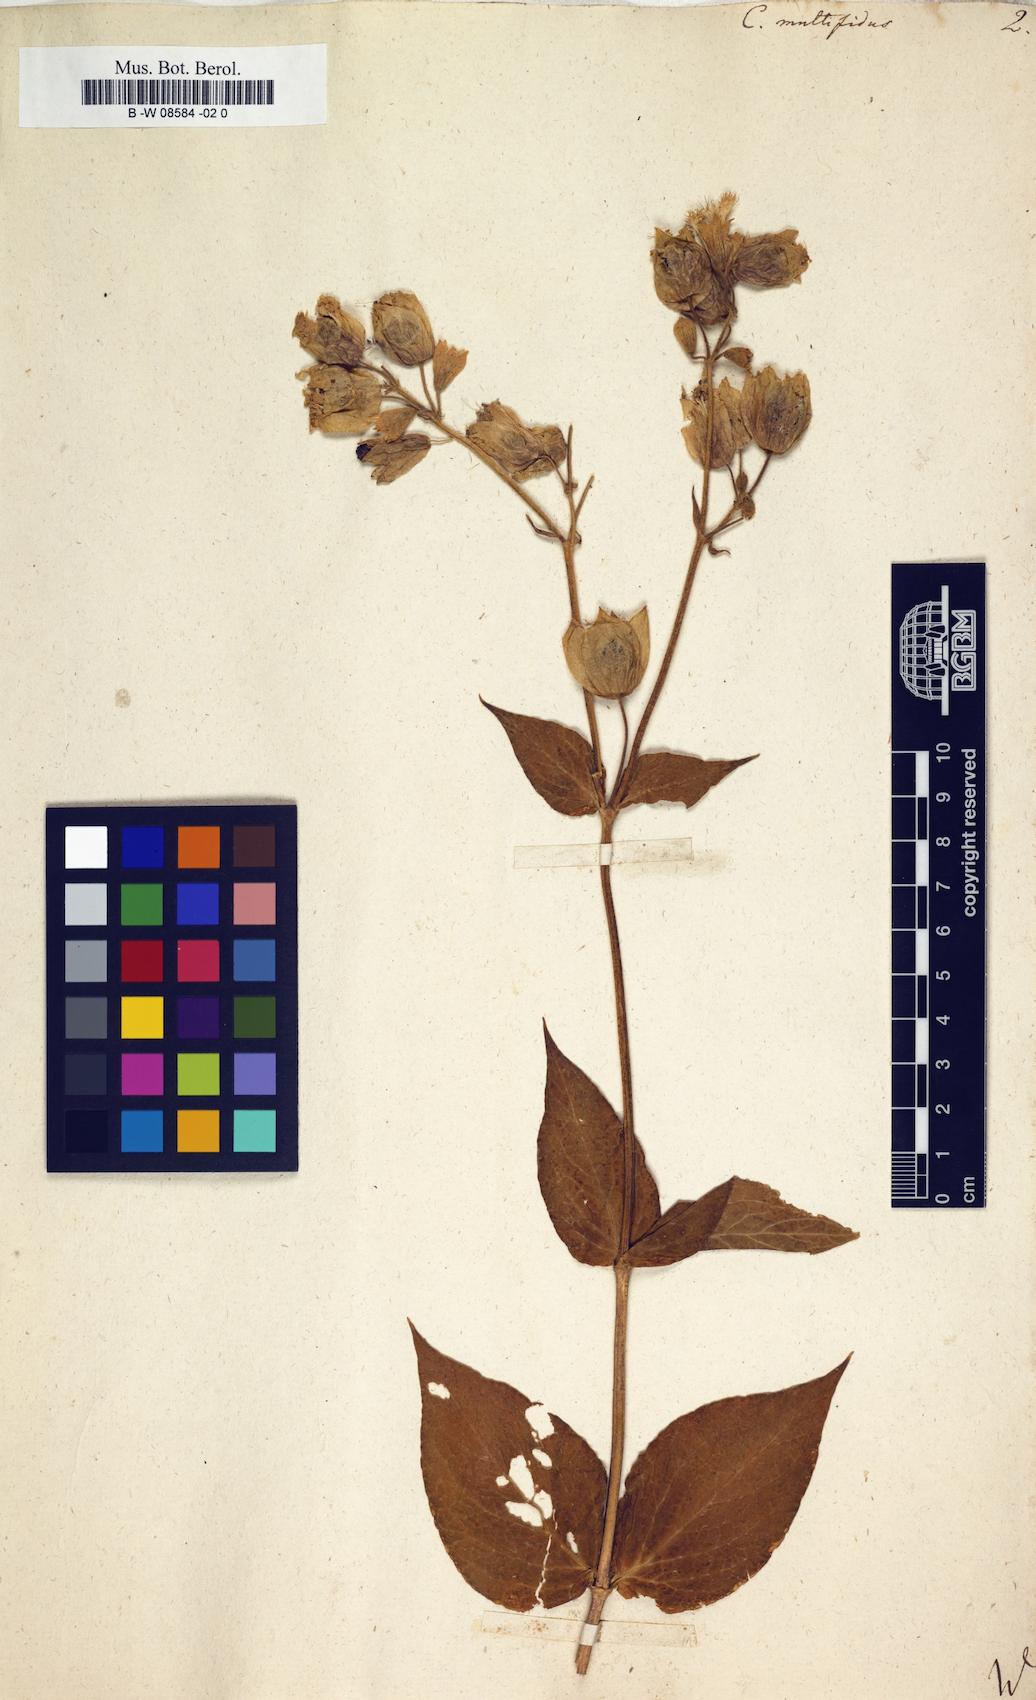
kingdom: Plantae
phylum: Tracheophyta
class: Magnoliopsida
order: Caryophyllales
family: Caryophyllaceae
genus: Silene
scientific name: Silene macrophylla
